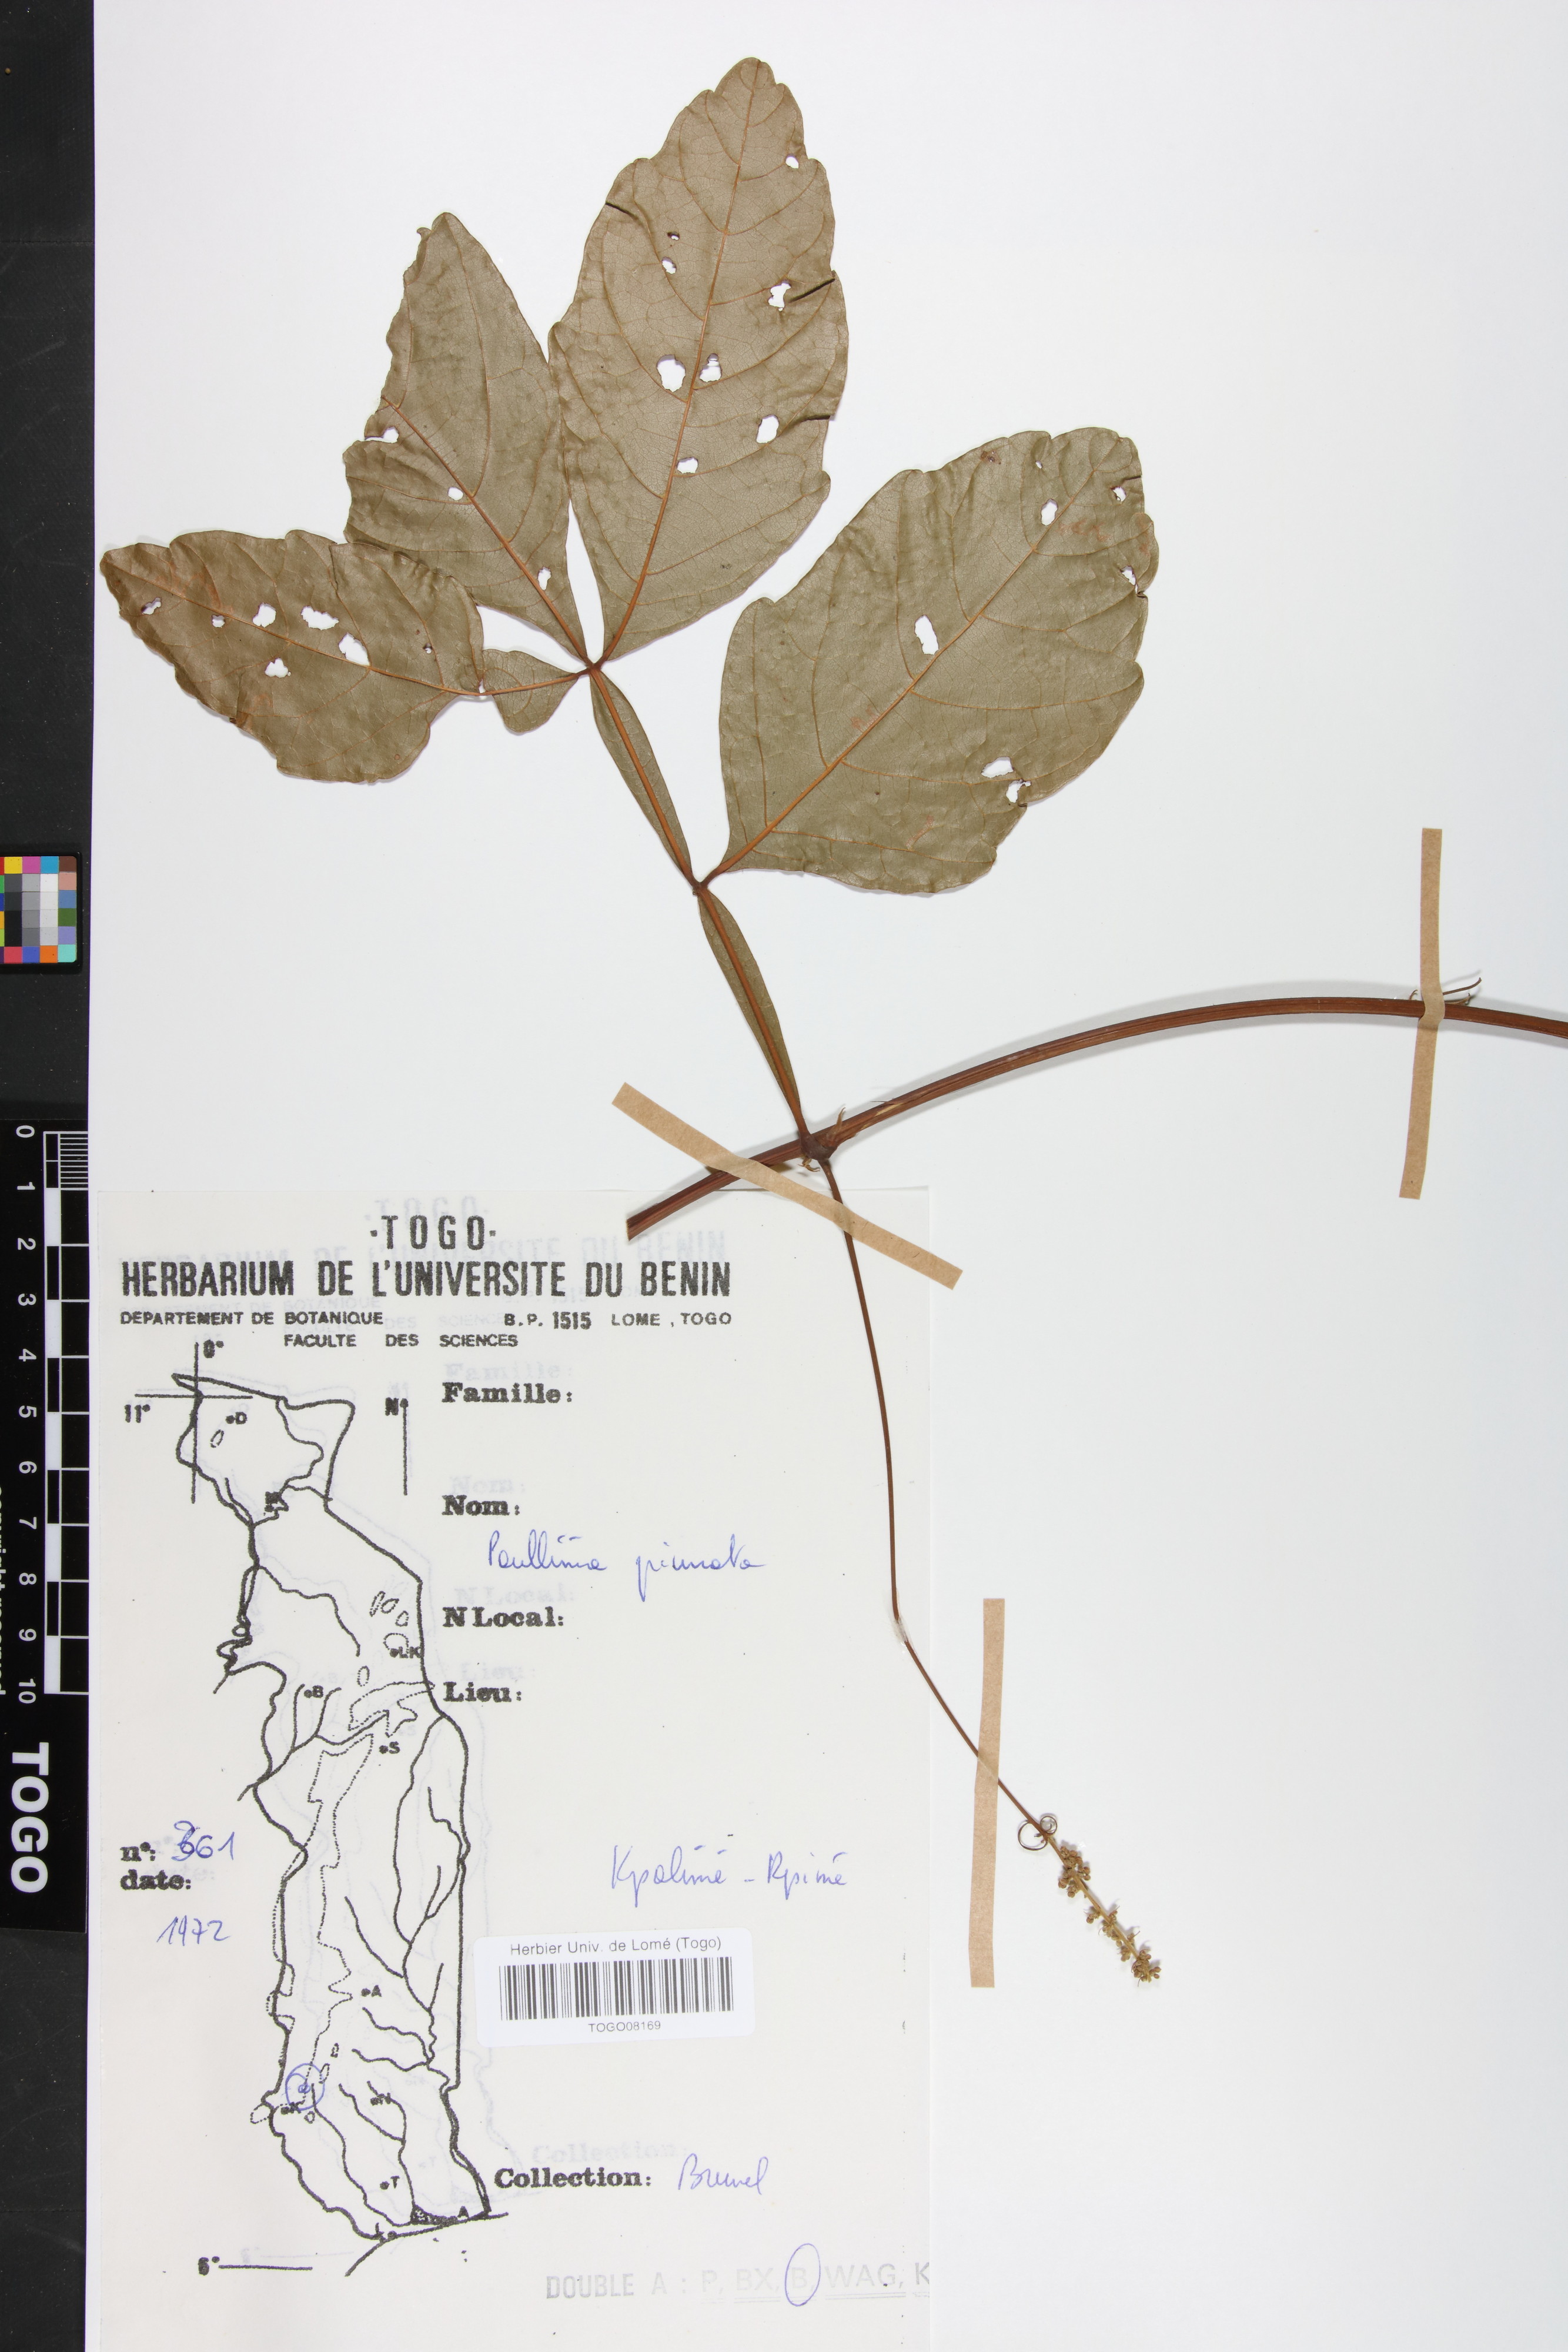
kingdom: Plantae
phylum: Tracheophyta
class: Magnoliopsida
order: Sapindales
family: Sapindaceae
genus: Paullinia
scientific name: Paullinia pinnata
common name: Barbasco
